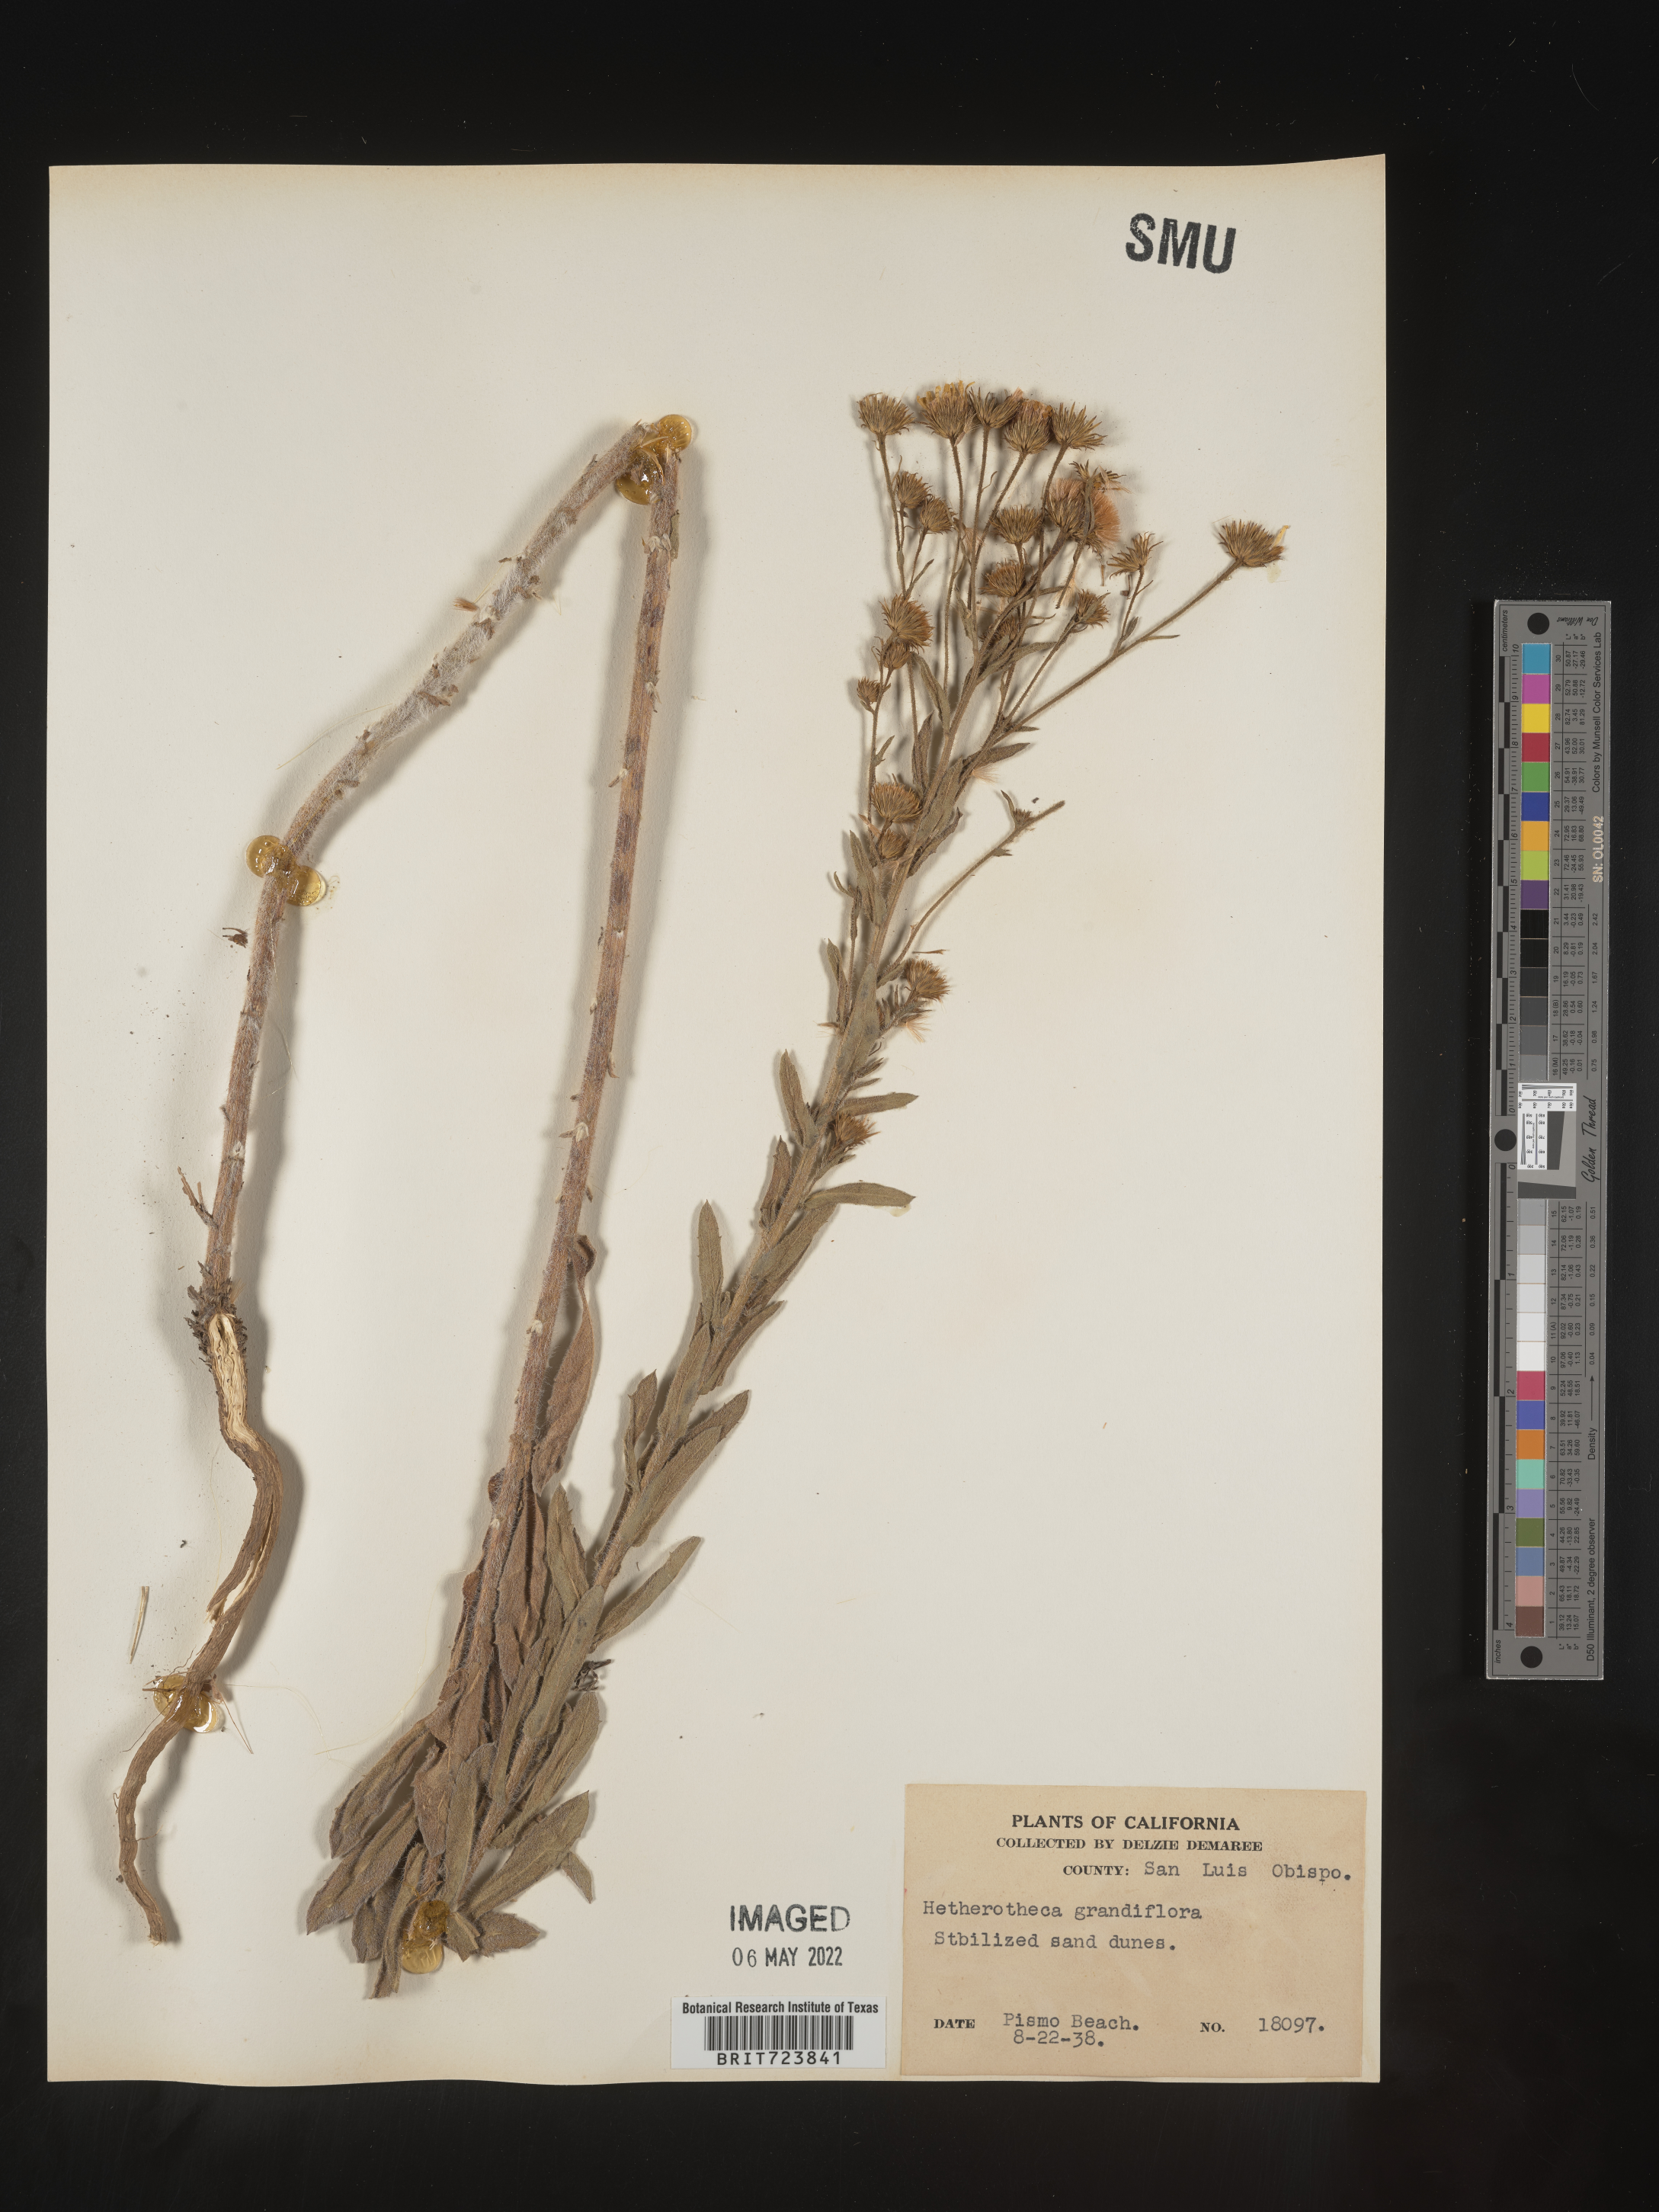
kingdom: Plantae
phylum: Tracheophyta
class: Magnoliopsida
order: Asterales
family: Asteraceae
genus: Heterotheca
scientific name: Heterotheca grandiflora
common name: Telegraphweed
